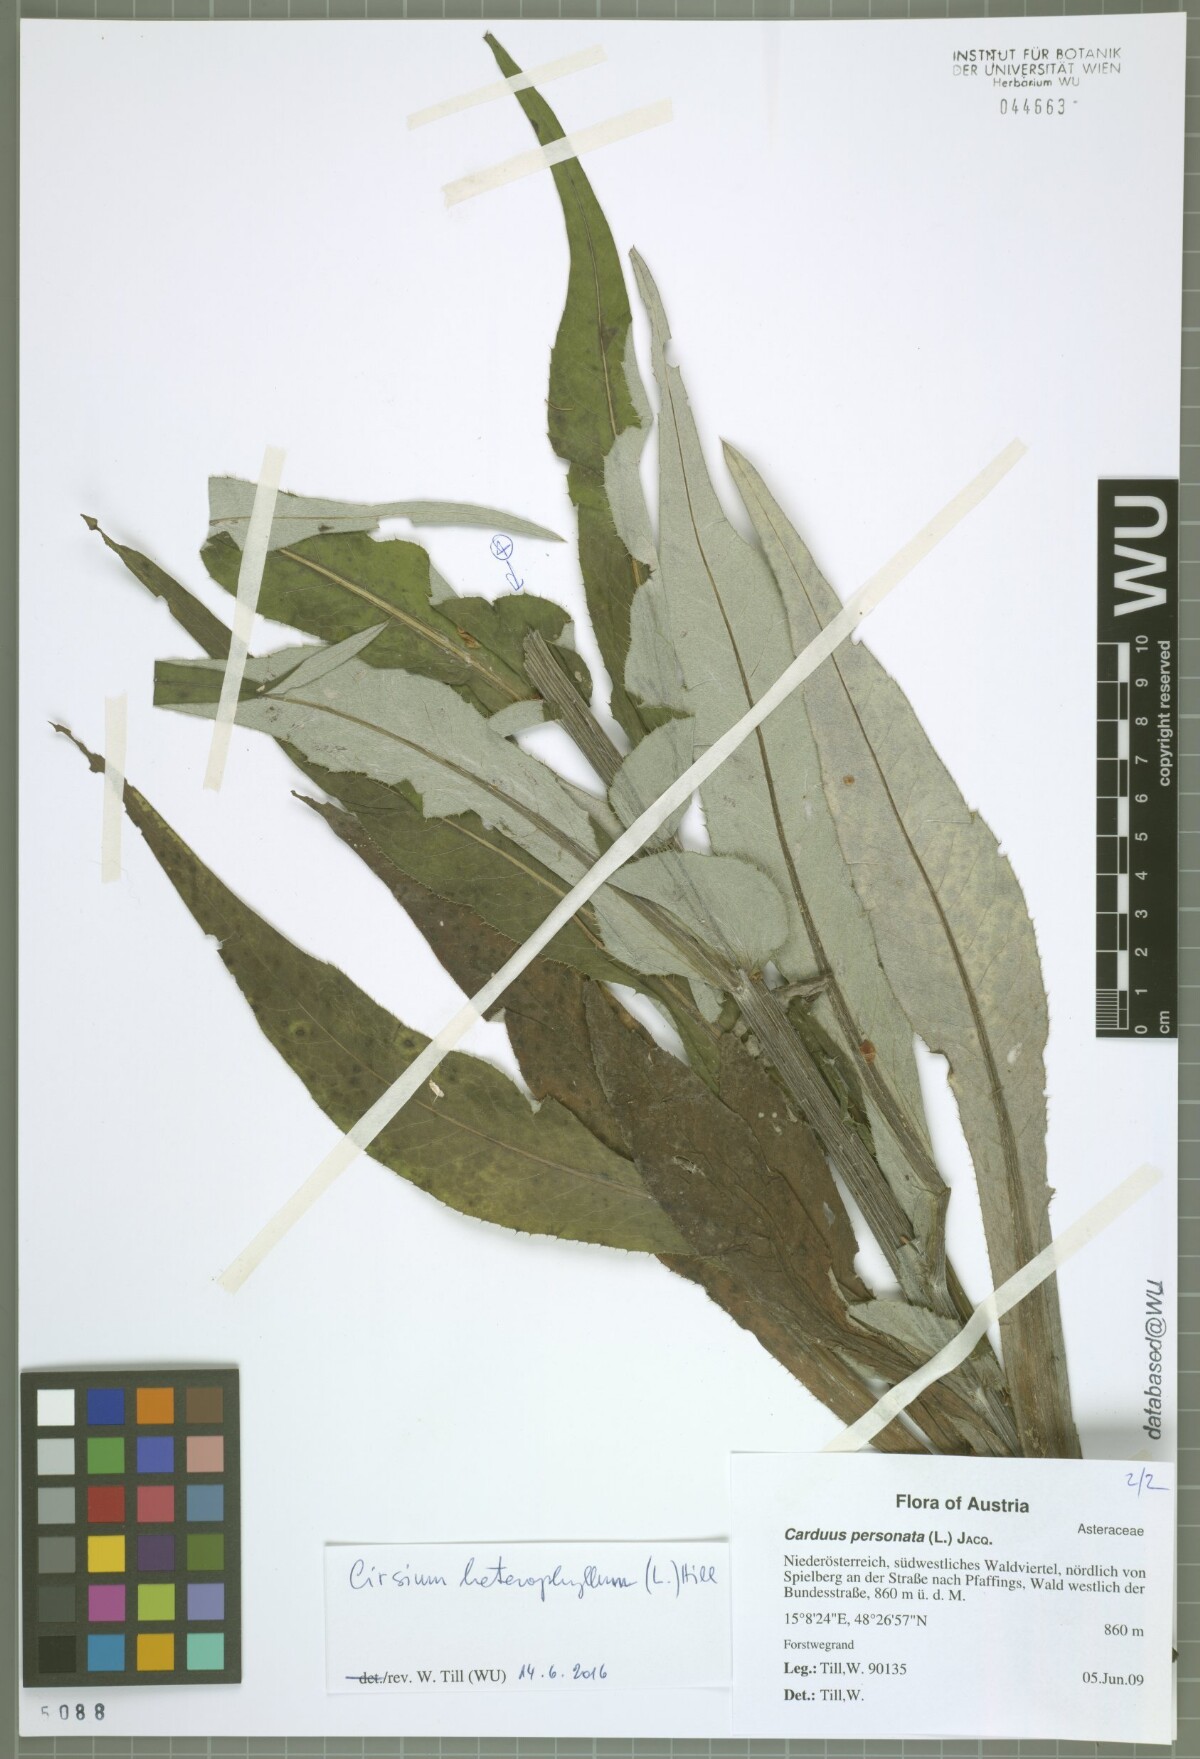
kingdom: Plantae
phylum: Tracheophyta
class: Magnoliopsida
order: Asterales
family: Asteraceae
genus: Cirsium
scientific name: Cirsium heterophyllum
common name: Melancholy thistle
